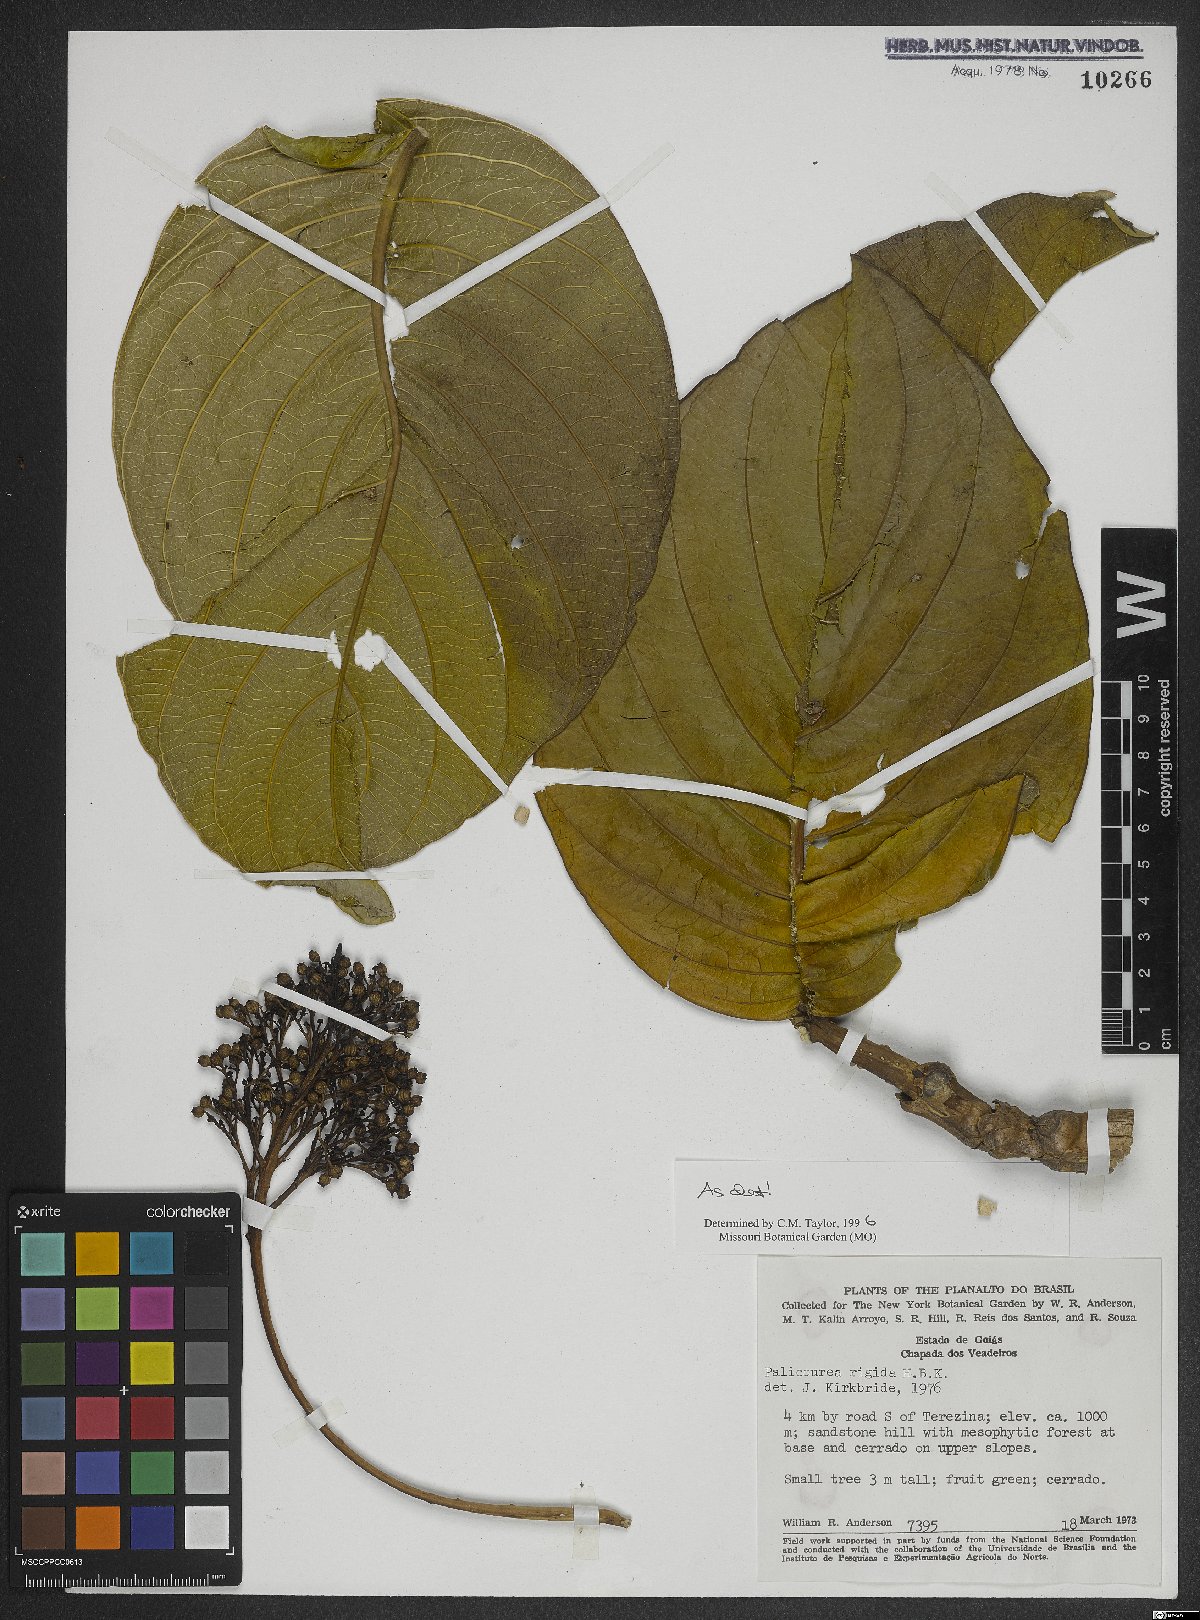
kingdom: Plantae
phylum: Tracheophyta
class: Magnoliopsida
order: Gentianales
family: Rubiaceae
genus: Palicourea
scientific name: Palicourea rigida
